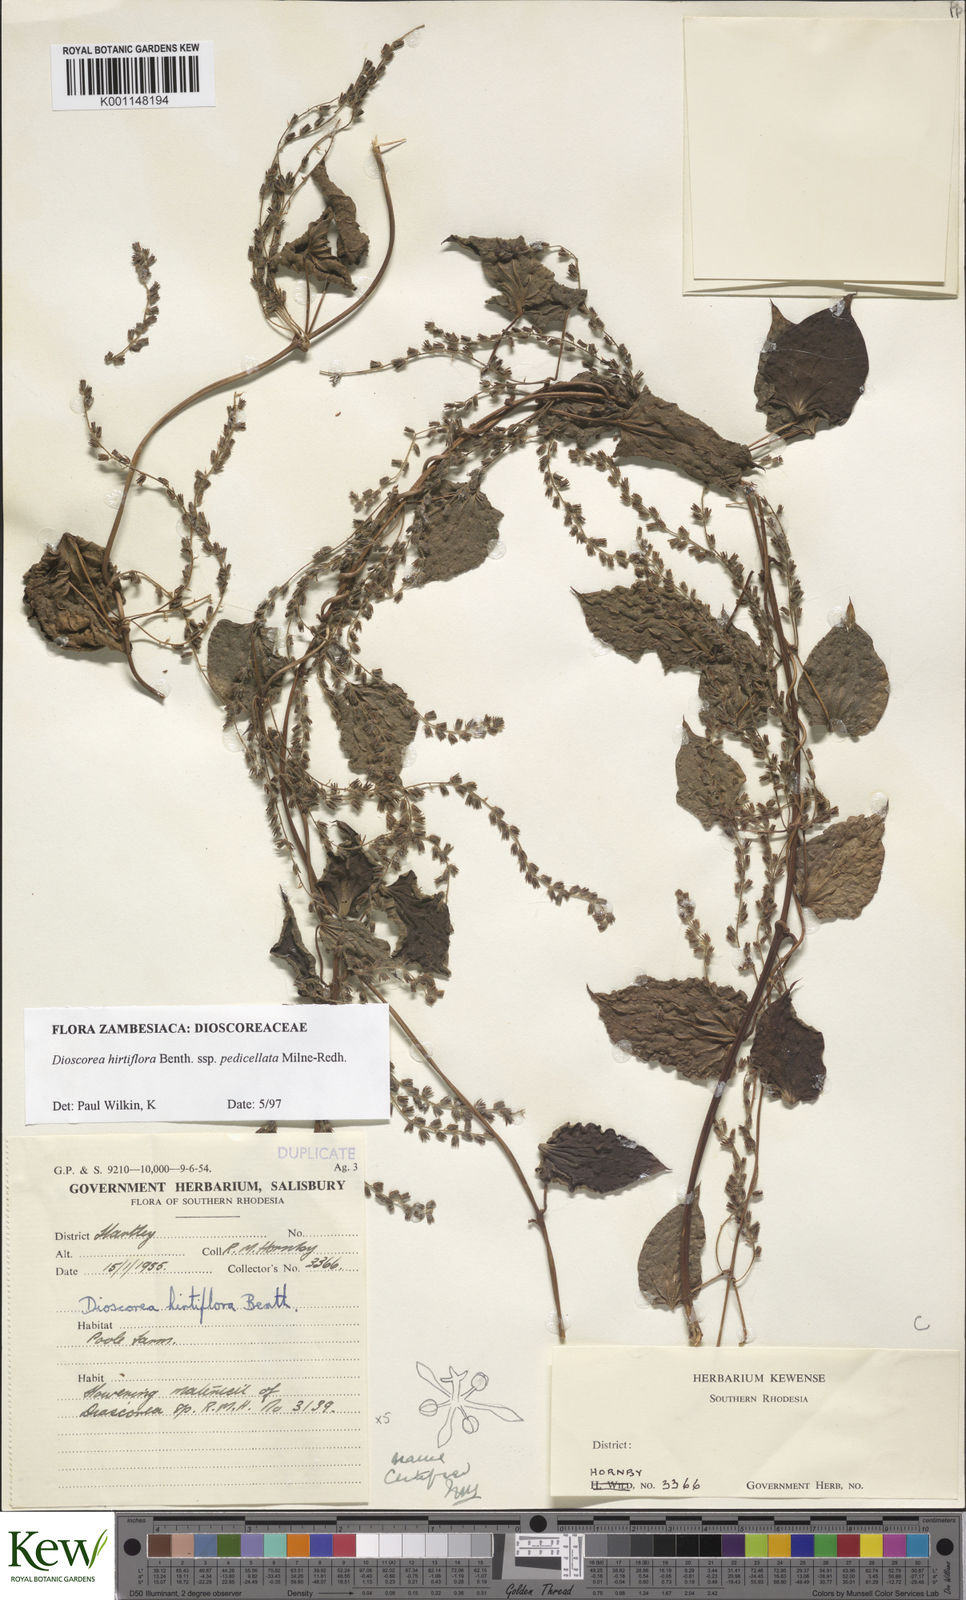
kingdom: Plantae
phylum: Tracheophyta
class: Liliopsida
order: Dioscoreales
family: Dioscoreaceae
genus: Dioscorea
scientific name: Dioscorea hirtiflora
